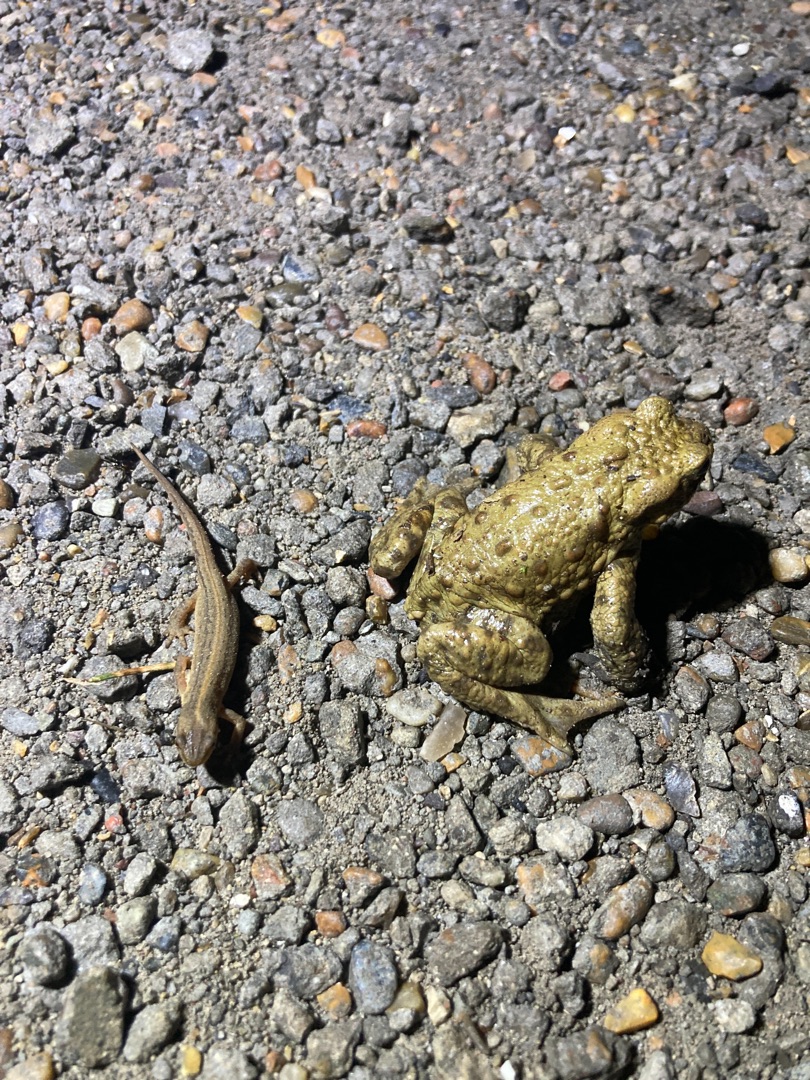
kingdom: Animalia
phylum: Chordata
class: Amphibia
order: Caudata
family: Salamandridae
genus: Lissotriton
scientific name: Lissotriton vulgaris
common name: Lille vandsalamander
